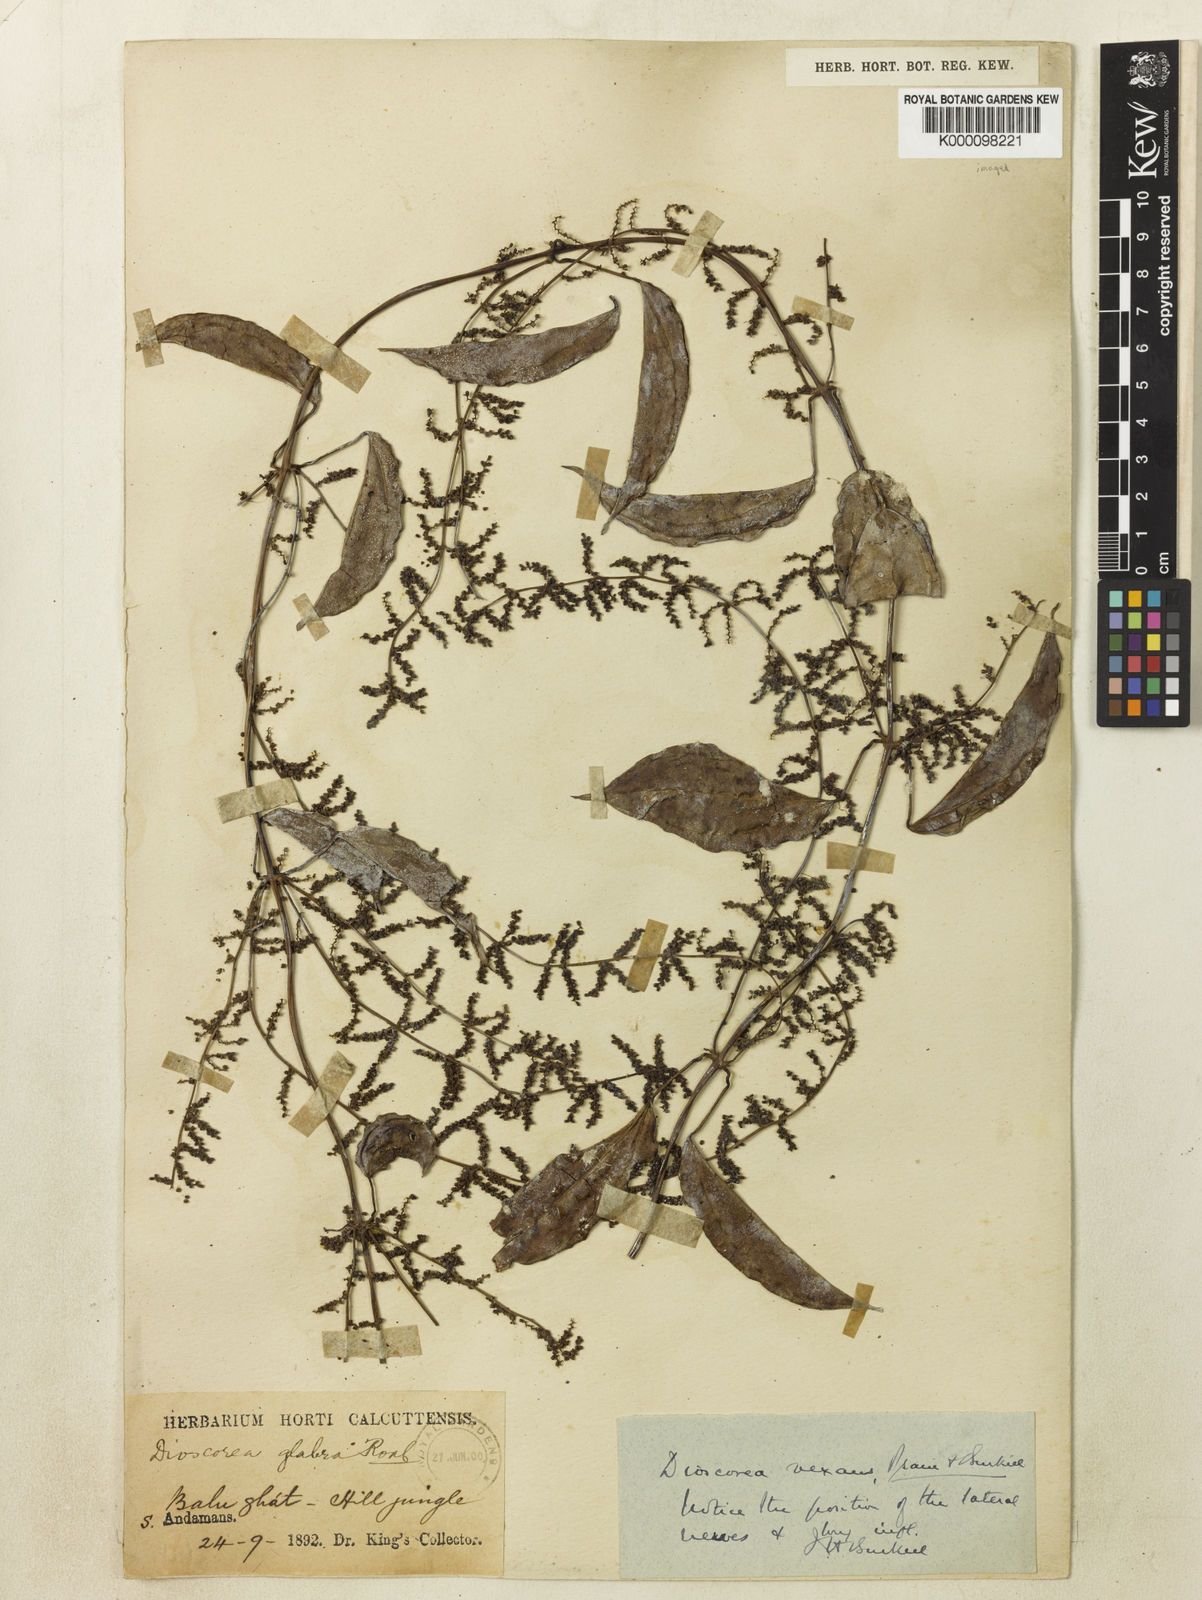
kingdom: Plantae
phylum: Tracheophyta
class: Liliopsida
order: Dioscoreales
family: Dioscoreaceae
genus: Dioscorea
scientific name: Dioscorea vexans
